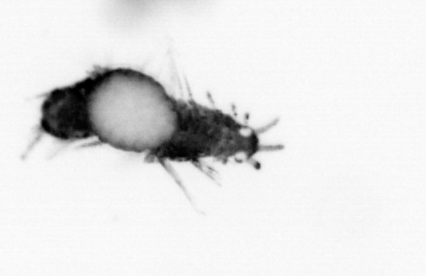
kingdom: Animalia
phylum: Annelida
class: Polychaeta
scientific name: Polychaeta
